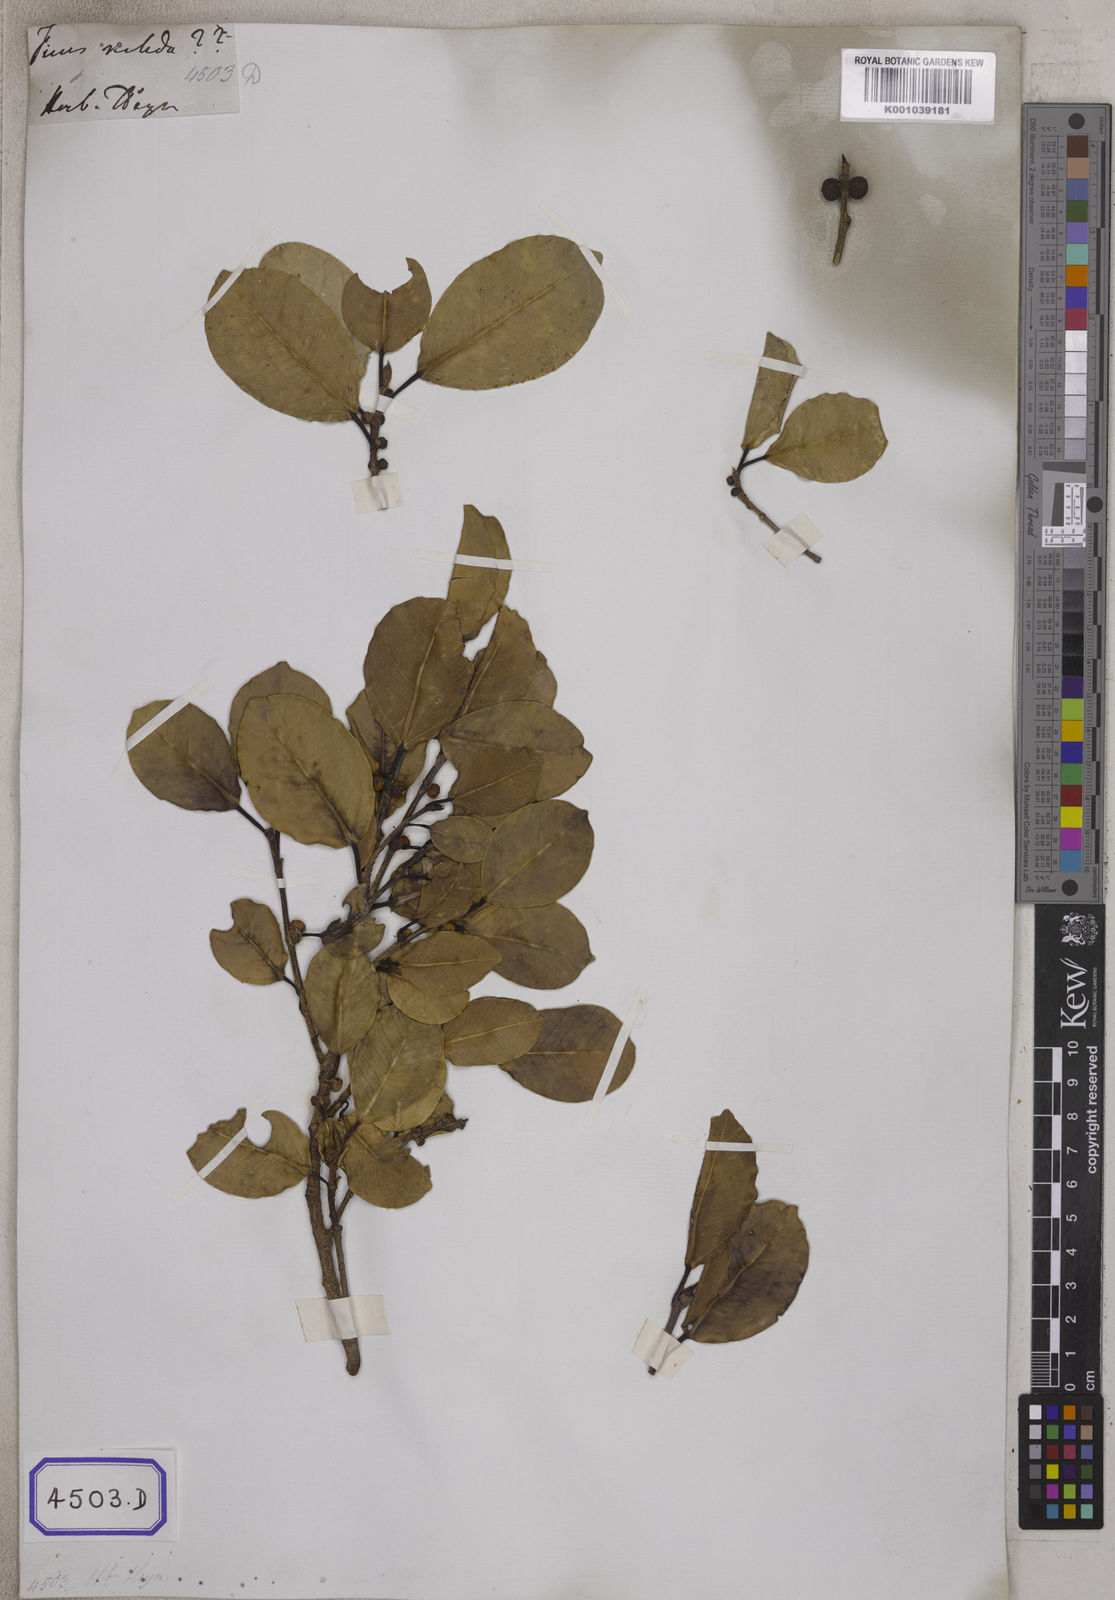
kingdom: Plantae
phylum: Tracheophyta
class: Magnoliopsida
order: Rosales
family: Moraceae
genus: Ficus
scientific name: Ficus
